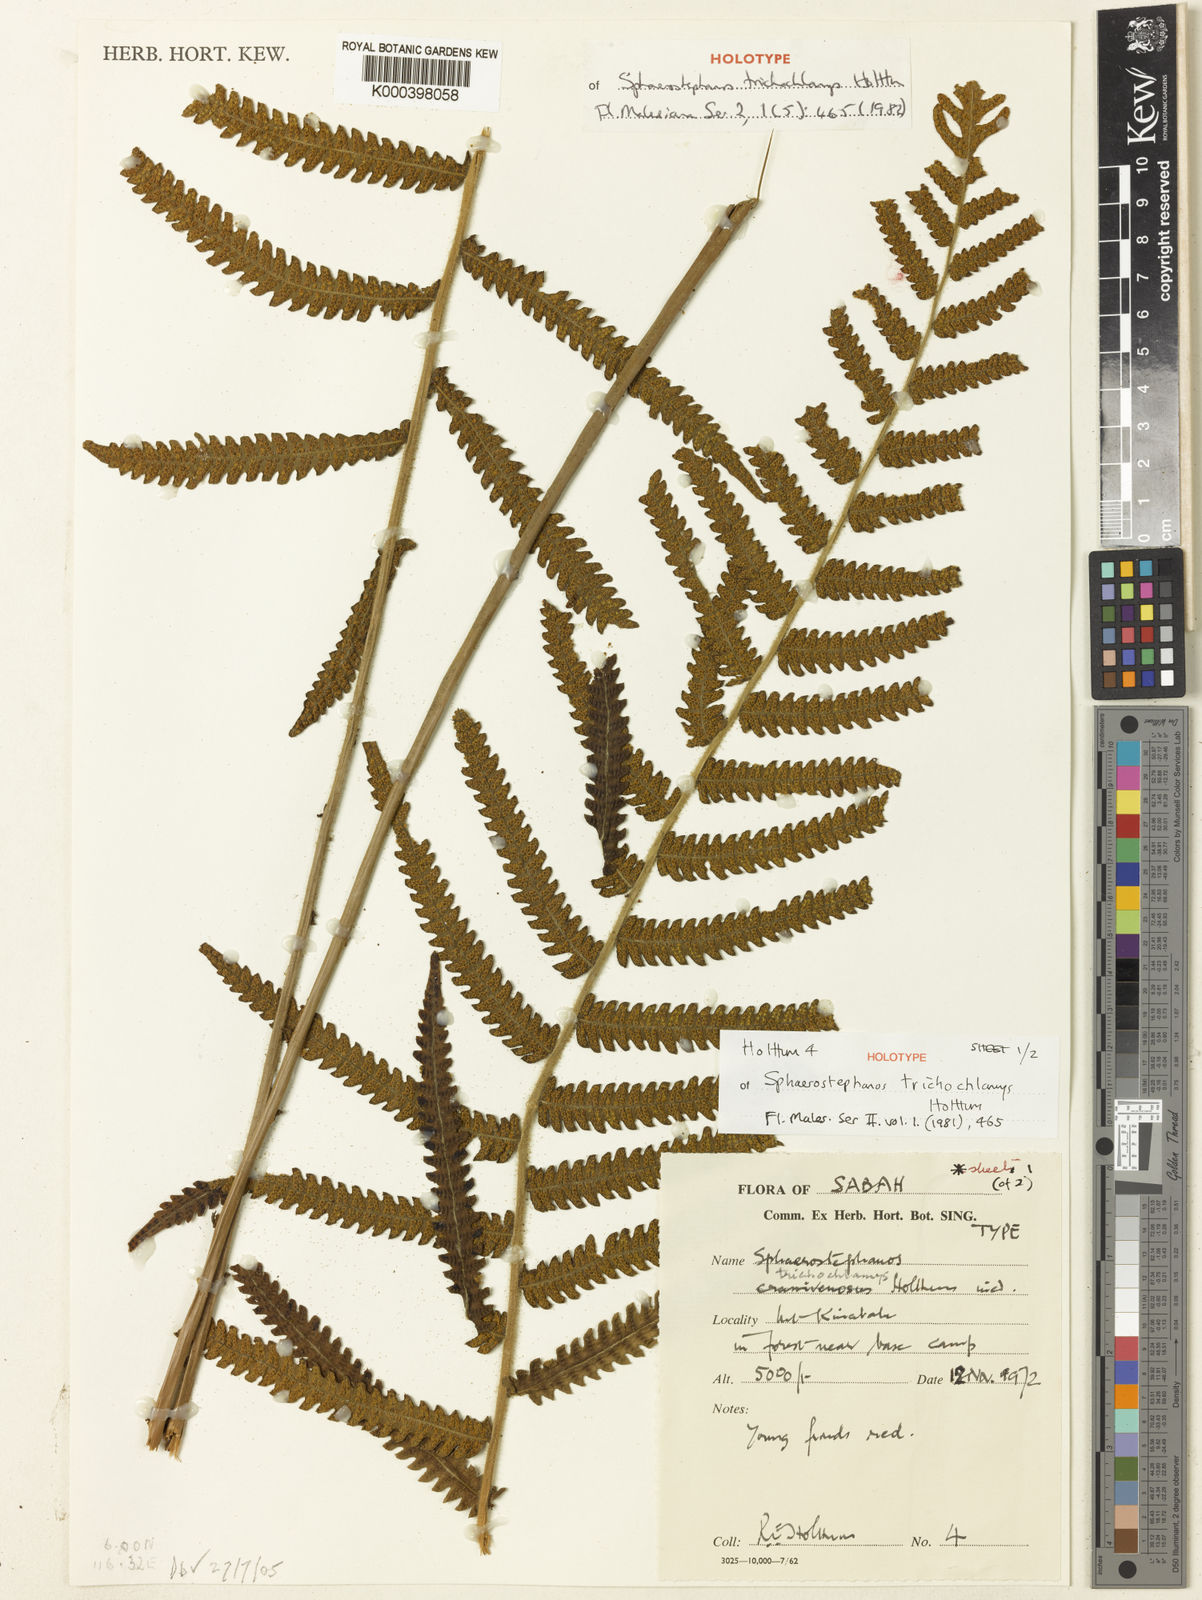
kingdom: Plantae
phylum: Tracheophyta
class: Polypodiopsida
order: Polypodiales
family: Thelypteridaceae
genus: Sphaerostephanos
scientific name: Sphaerostephanos trichochlamys
